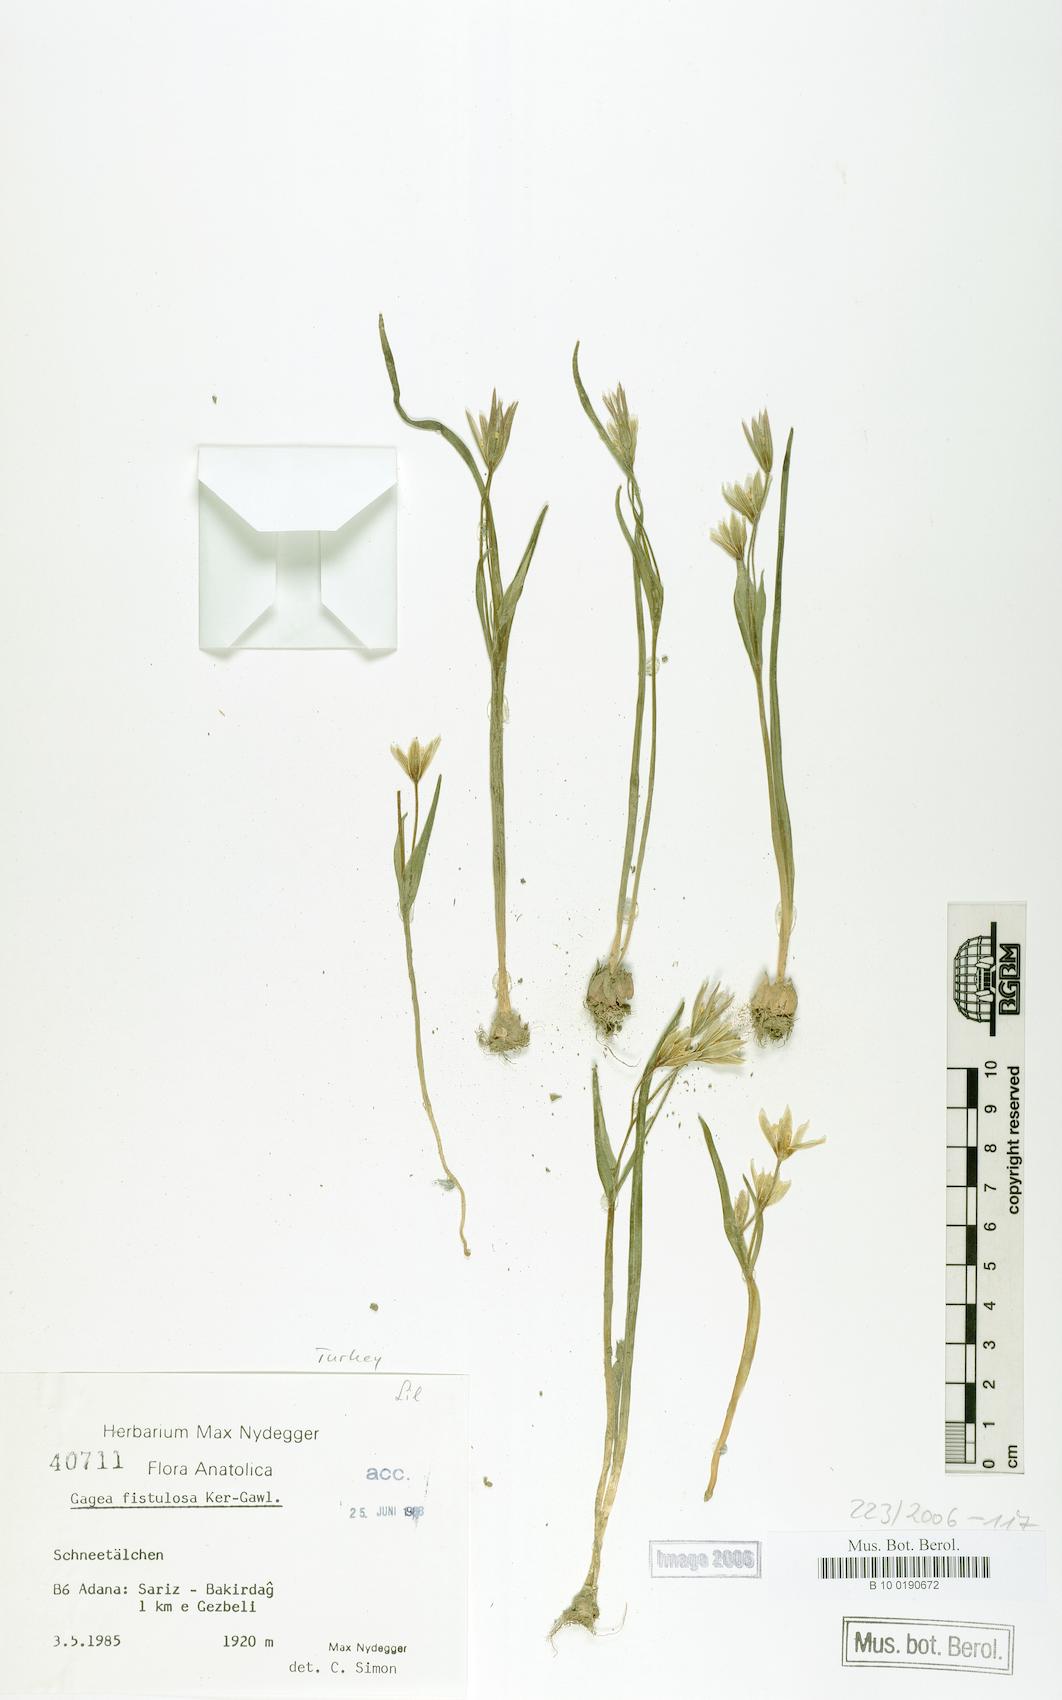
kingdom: Plantae
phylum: Tracheophyta
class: Liliopsida
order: Liliales
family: Liliaceae
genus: Gagea
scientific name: Gagea bohemica
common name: Early star-of-bethlehem
